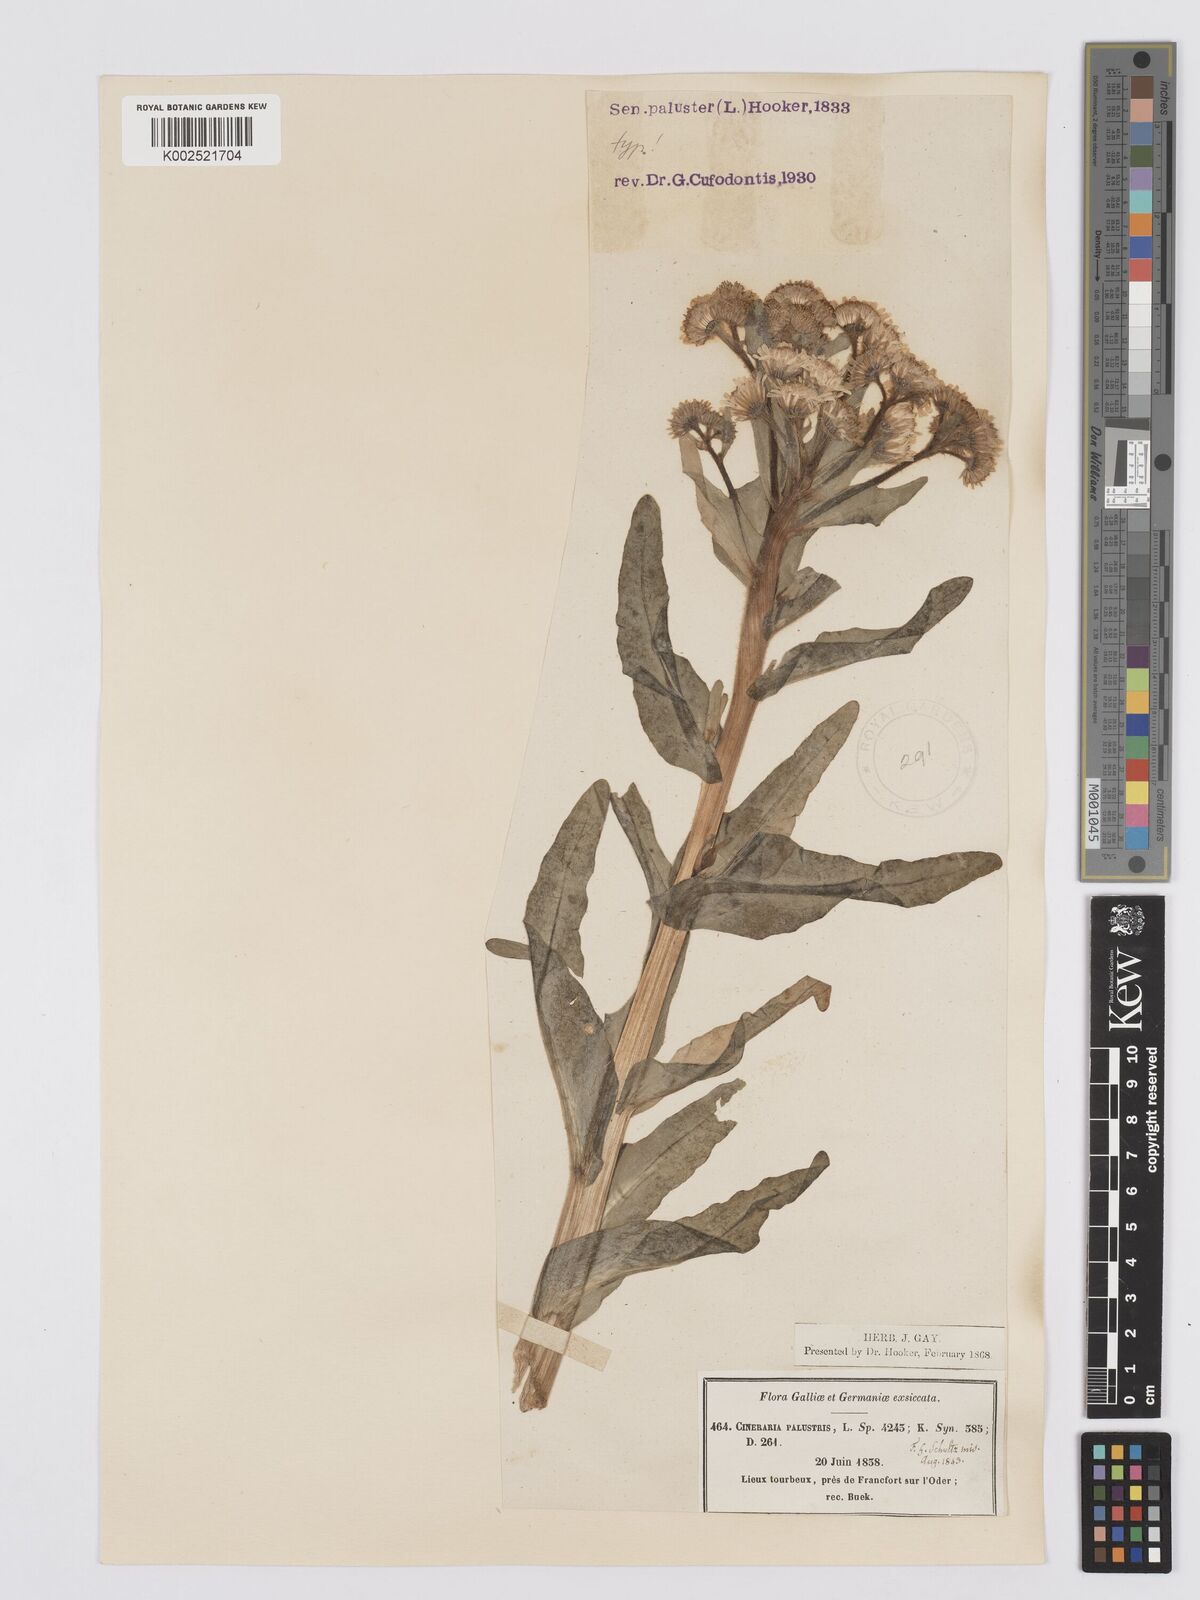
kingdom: Plantae
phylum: Tracheophyta
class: Magnoliopsida
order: Asterales
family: Asteraceae
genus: Tephroseris
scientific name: Tephroseris palustris
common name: Marsh fleawort
